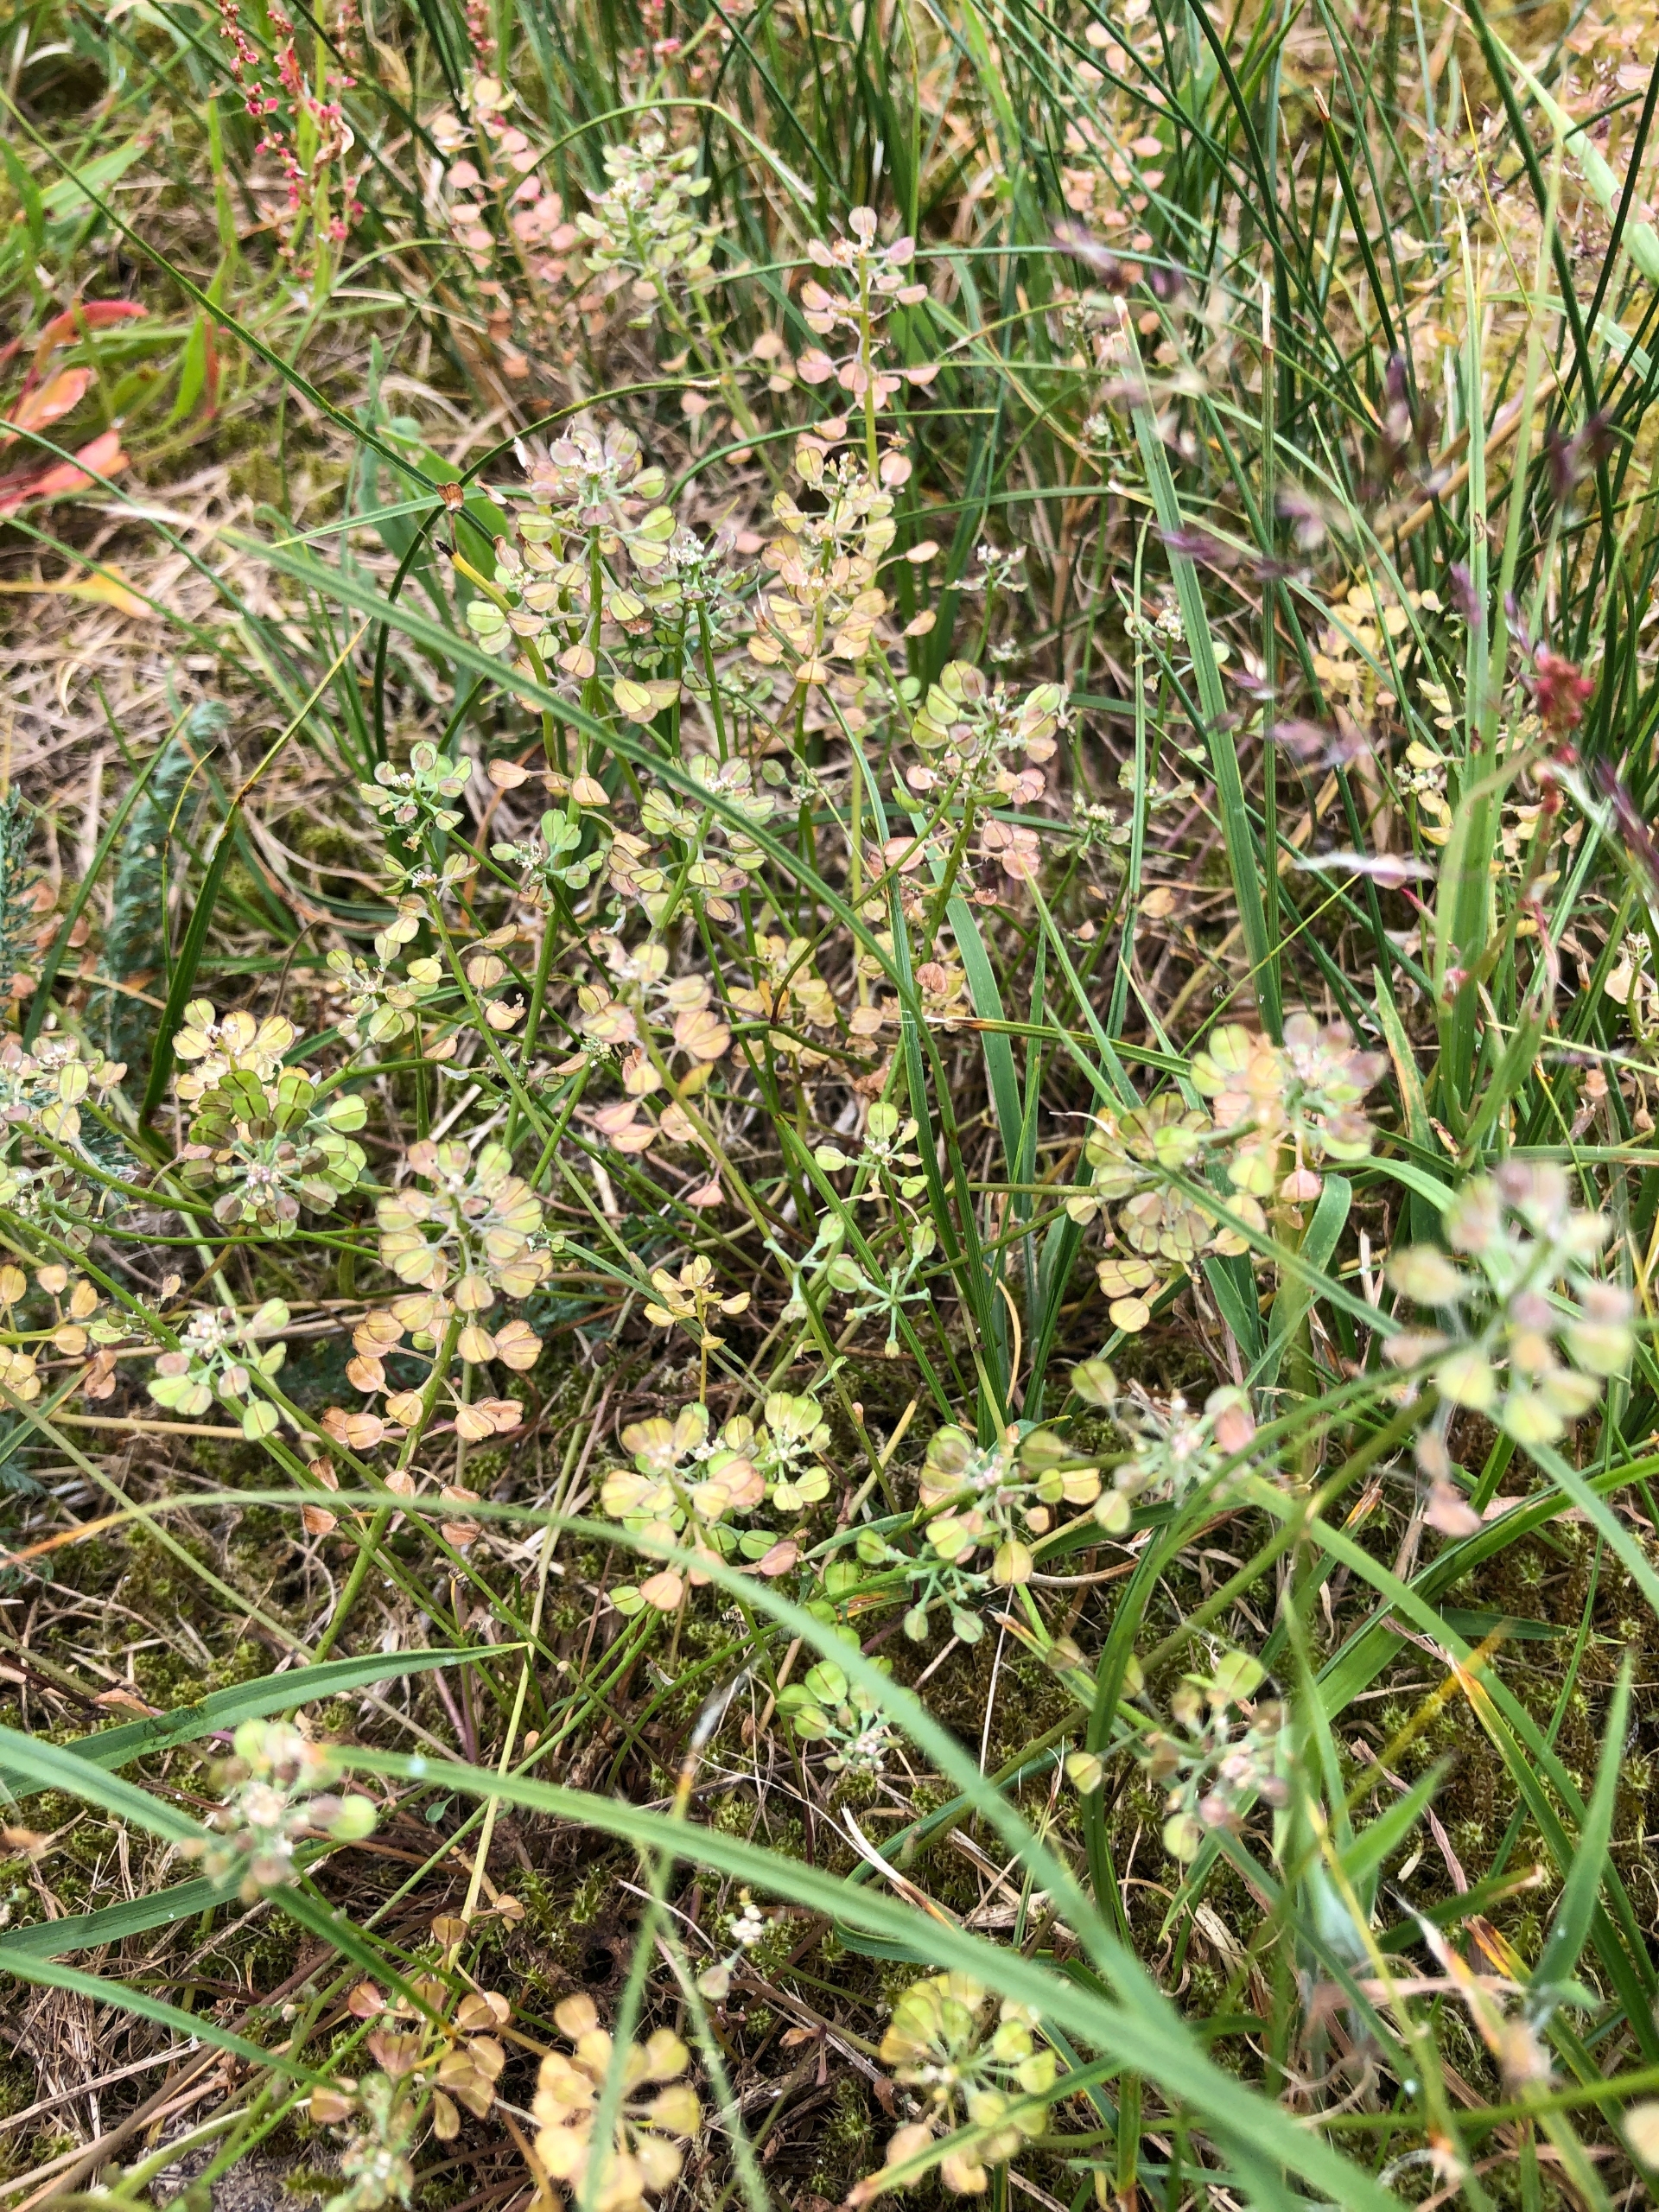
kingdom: Plantae
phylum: Tracheophyta
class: Magnoliopsida
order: Brassicales
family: Brassicaceae
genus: Teesdalia
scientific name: Teesdalia nudicaulis
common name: Flipkrave
